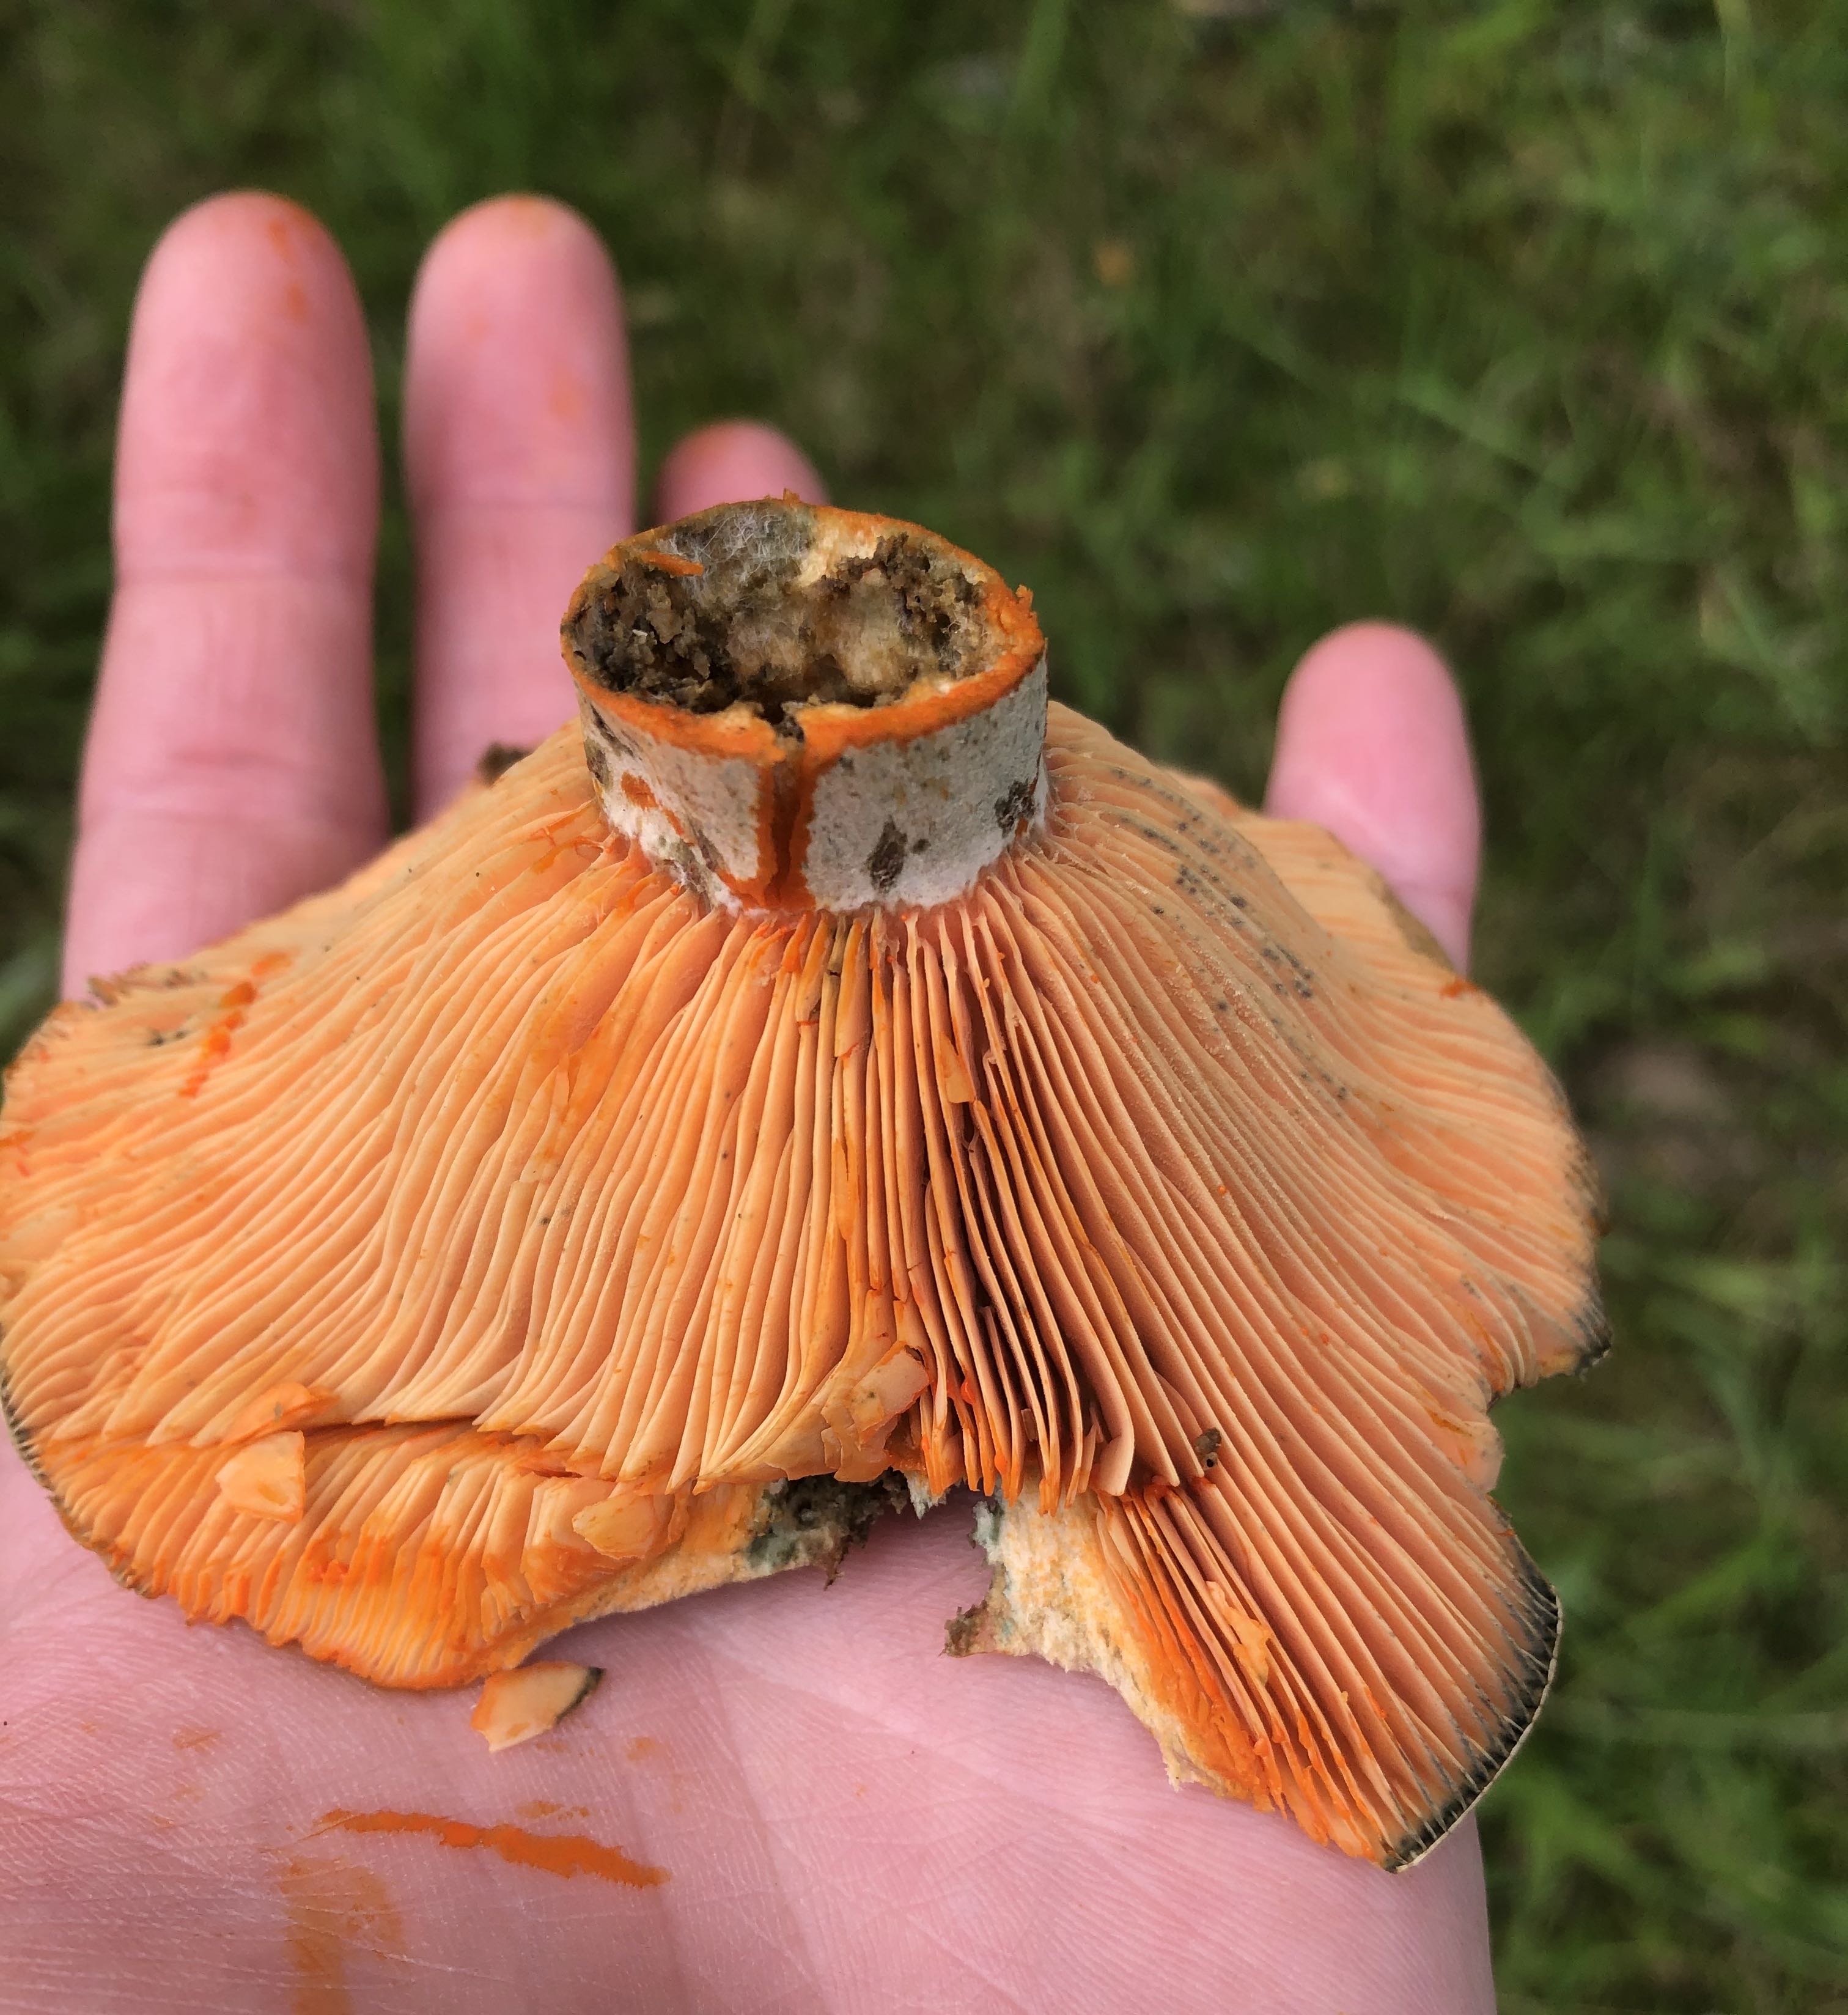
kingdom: Fungi
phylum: Basidiomycota
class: Agaricomycetes
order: Russulales
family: Russulaceae
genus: Lactarius
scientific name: Lactarius deterrimus
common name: gran-mælkehat
